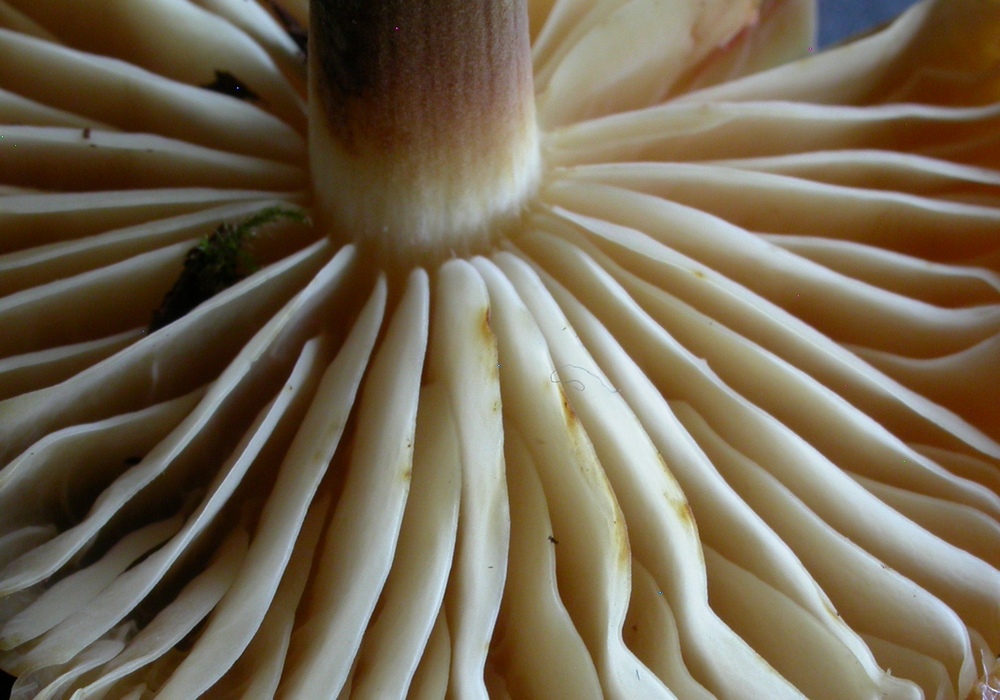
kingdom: Fungi
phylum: Basidiomycota
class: Agaricomycetes
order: Agaricales
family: Physalacriaceae
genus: Flammulina
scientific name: Flammulina elastica
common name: pile-fløjlsfod
